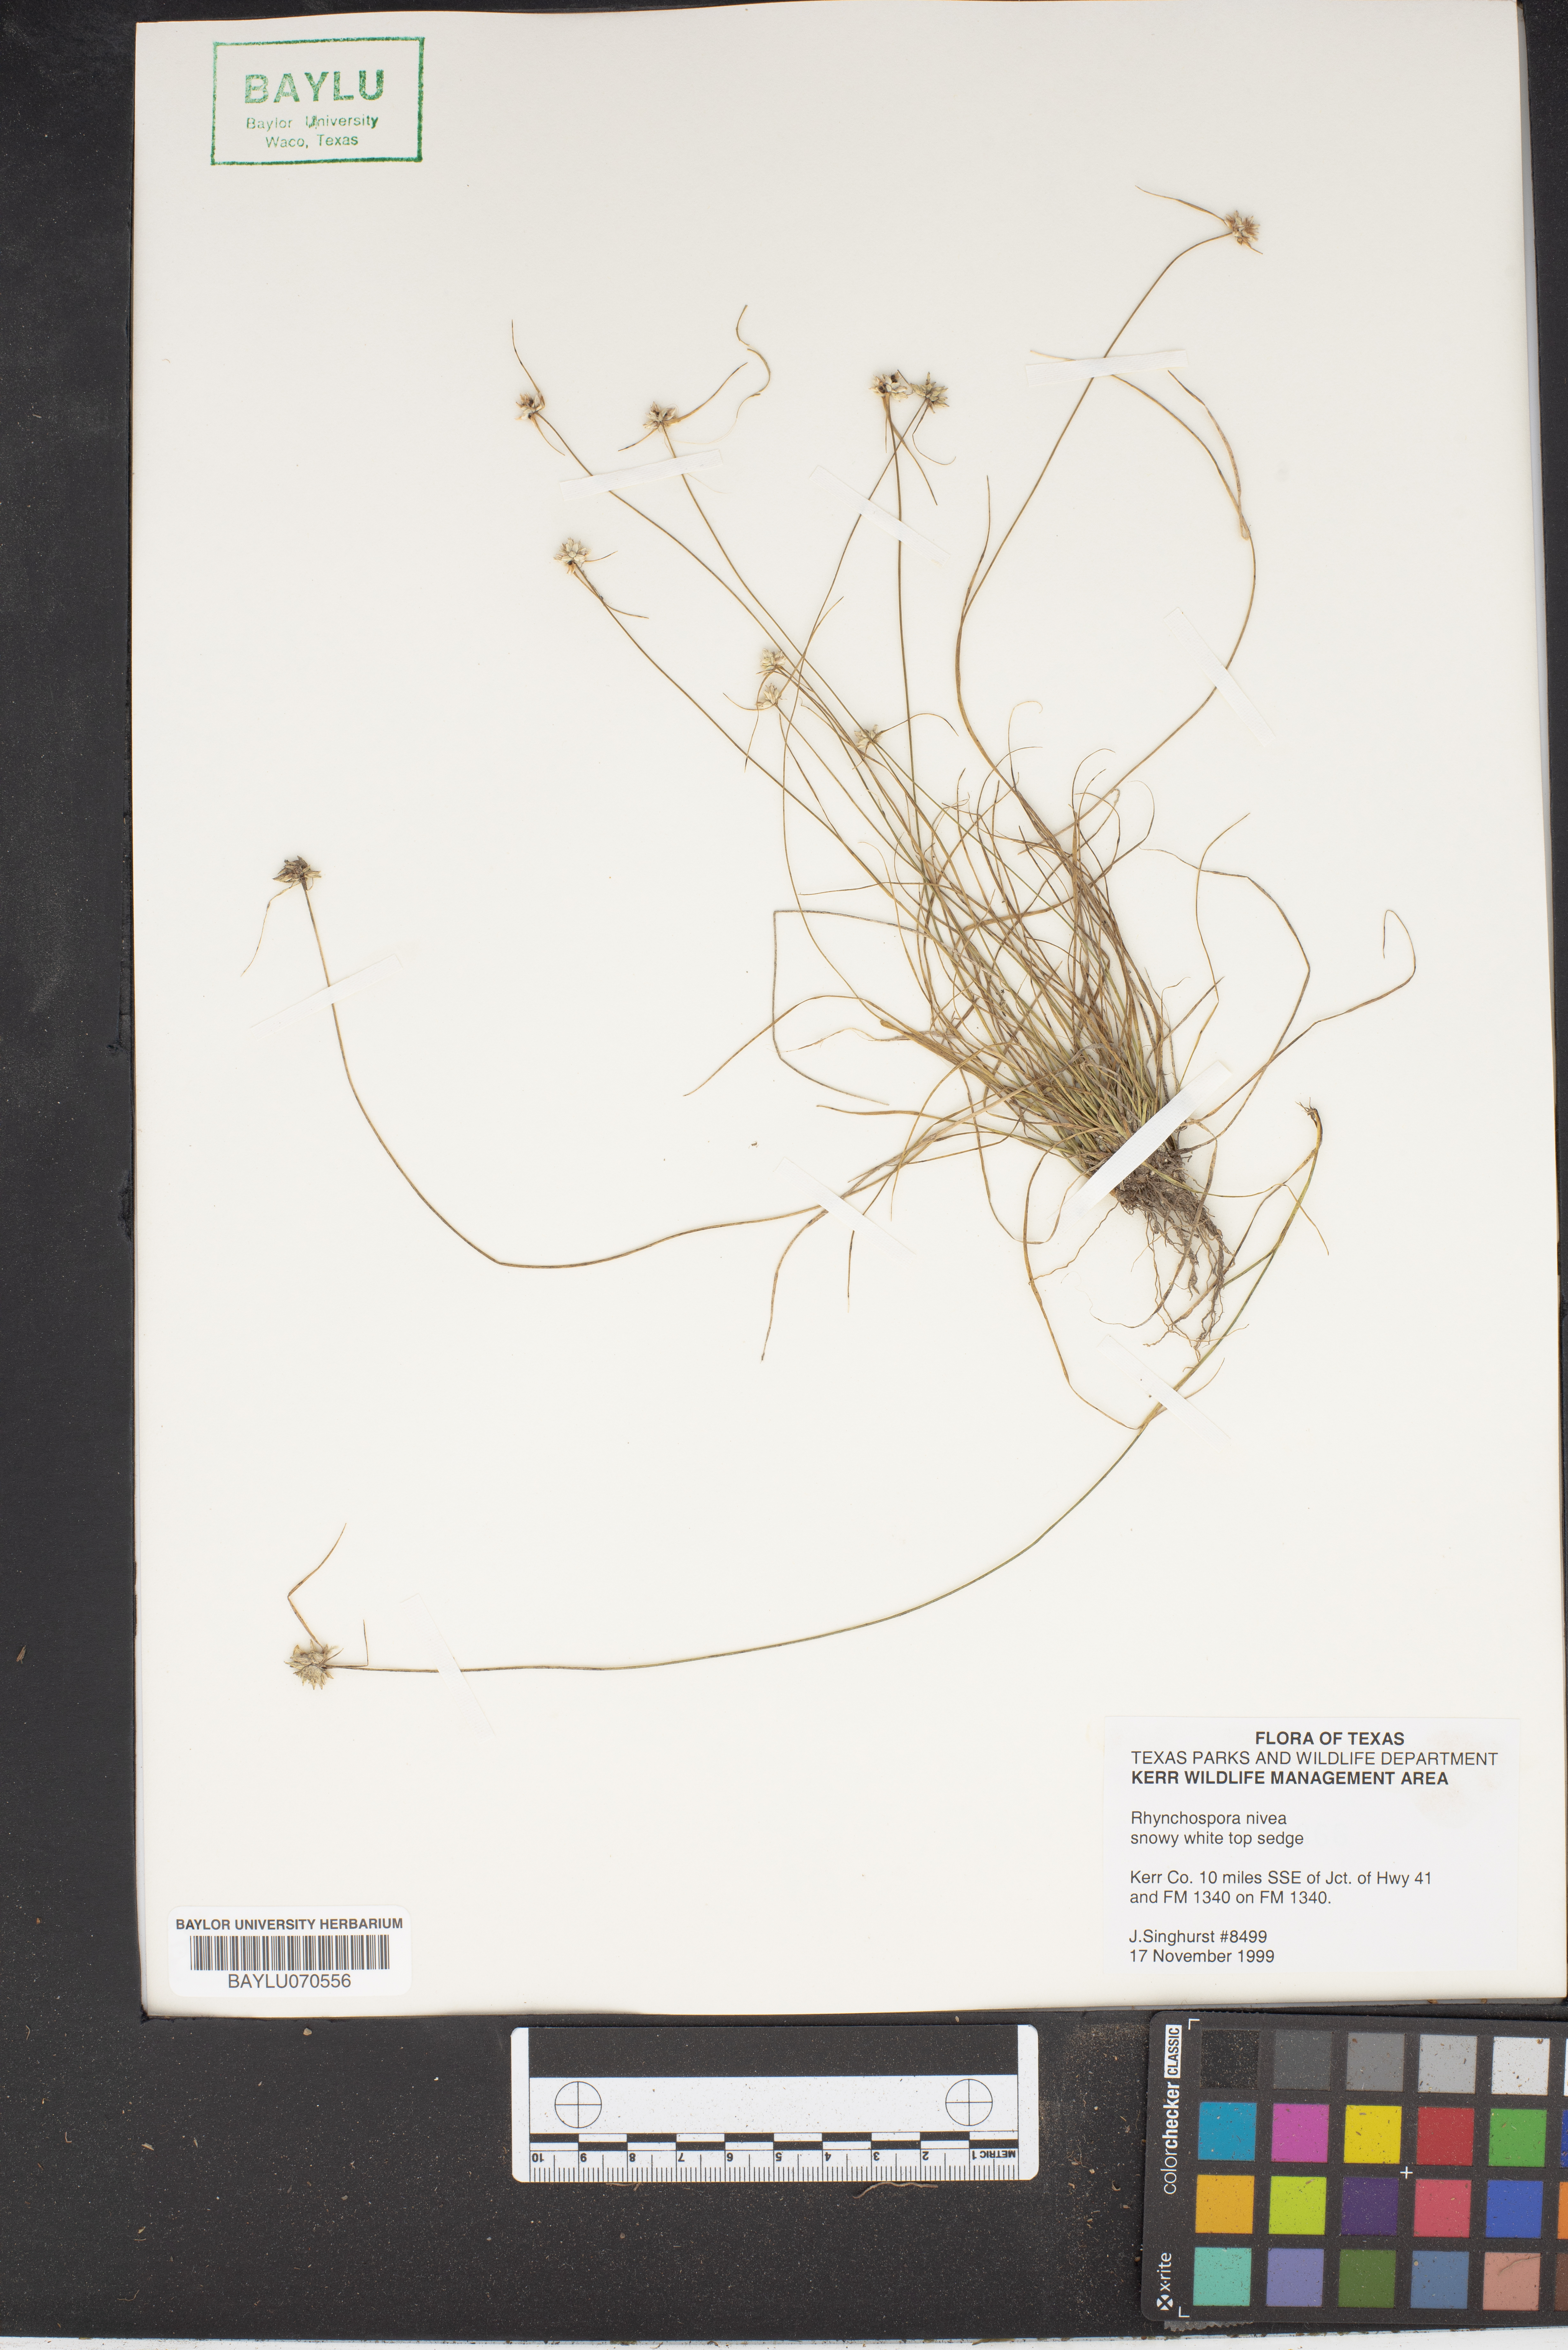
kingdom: Plantae
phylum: Tracheophyta
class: Liliopsida
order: Poales
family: Cyperaceae
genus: Rhynchospora
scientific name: Rhynchospora nivea
